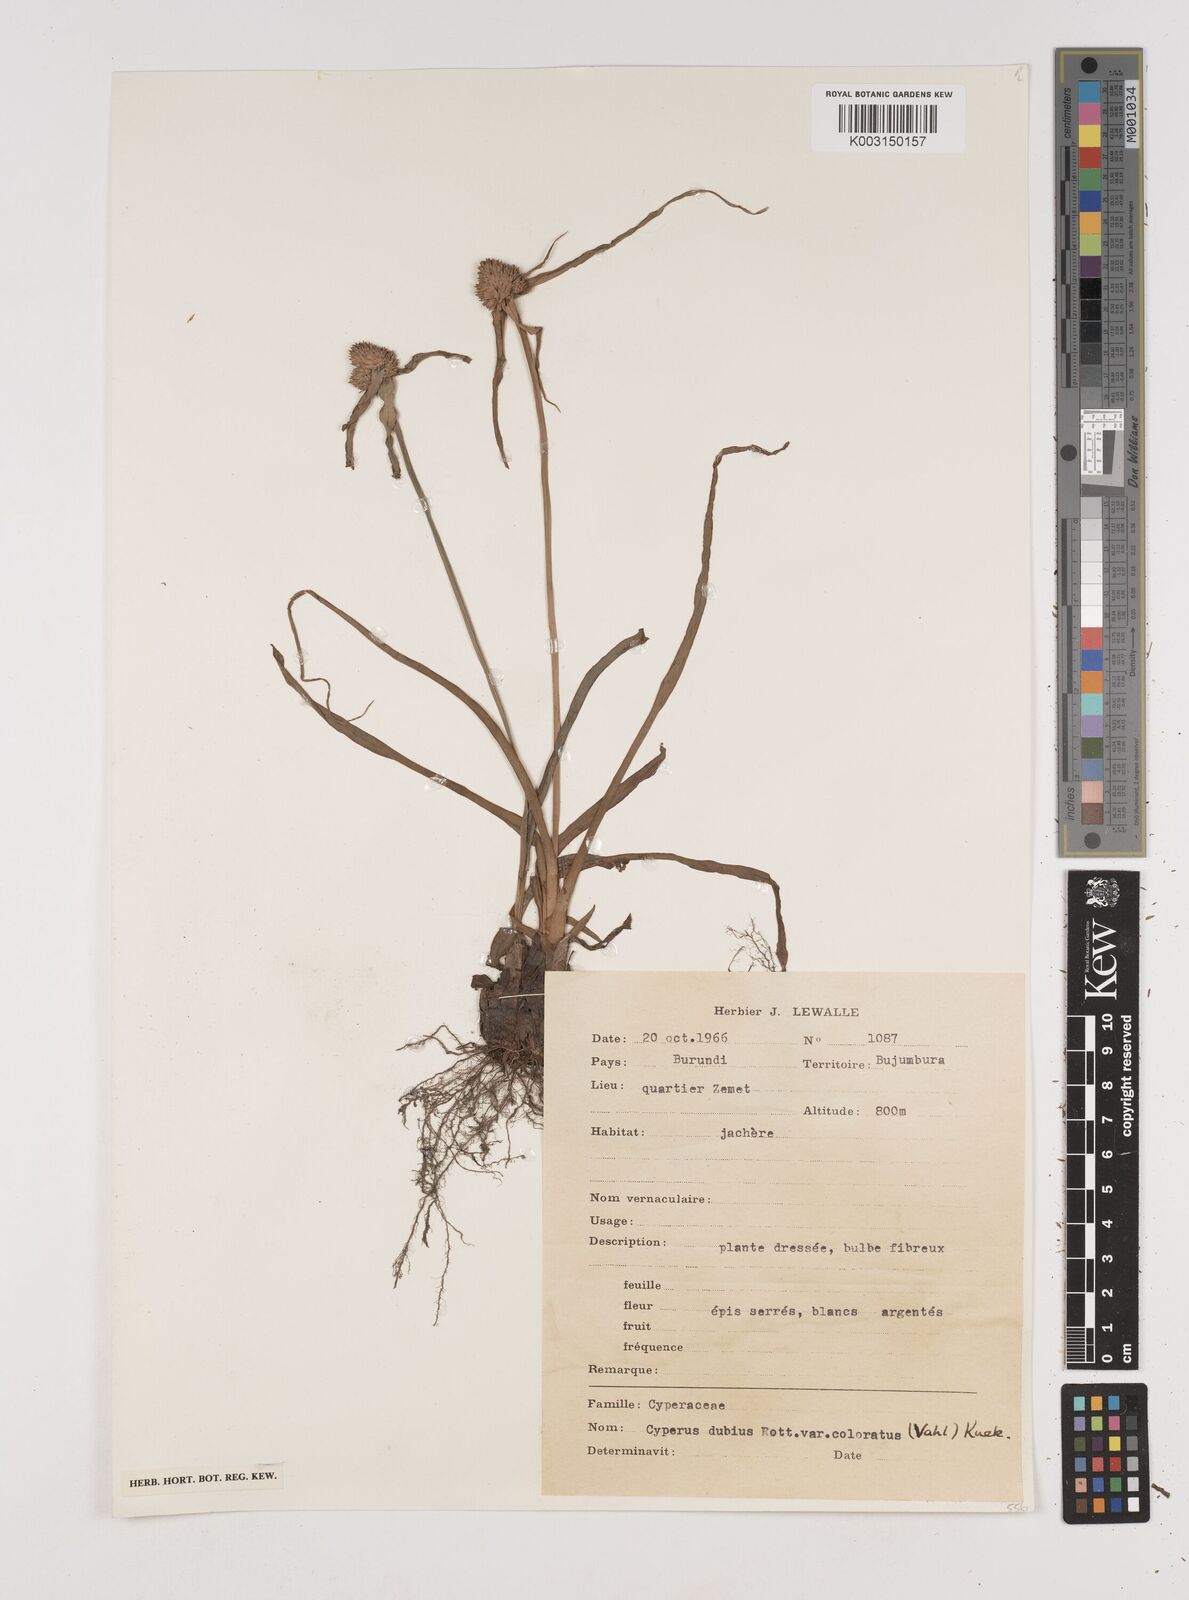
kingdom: Plantae
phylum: Tracheophyta
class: Liliopsida
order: Poales
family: Cyperaceae
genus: Cyperus
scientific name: Cyperus dubius
